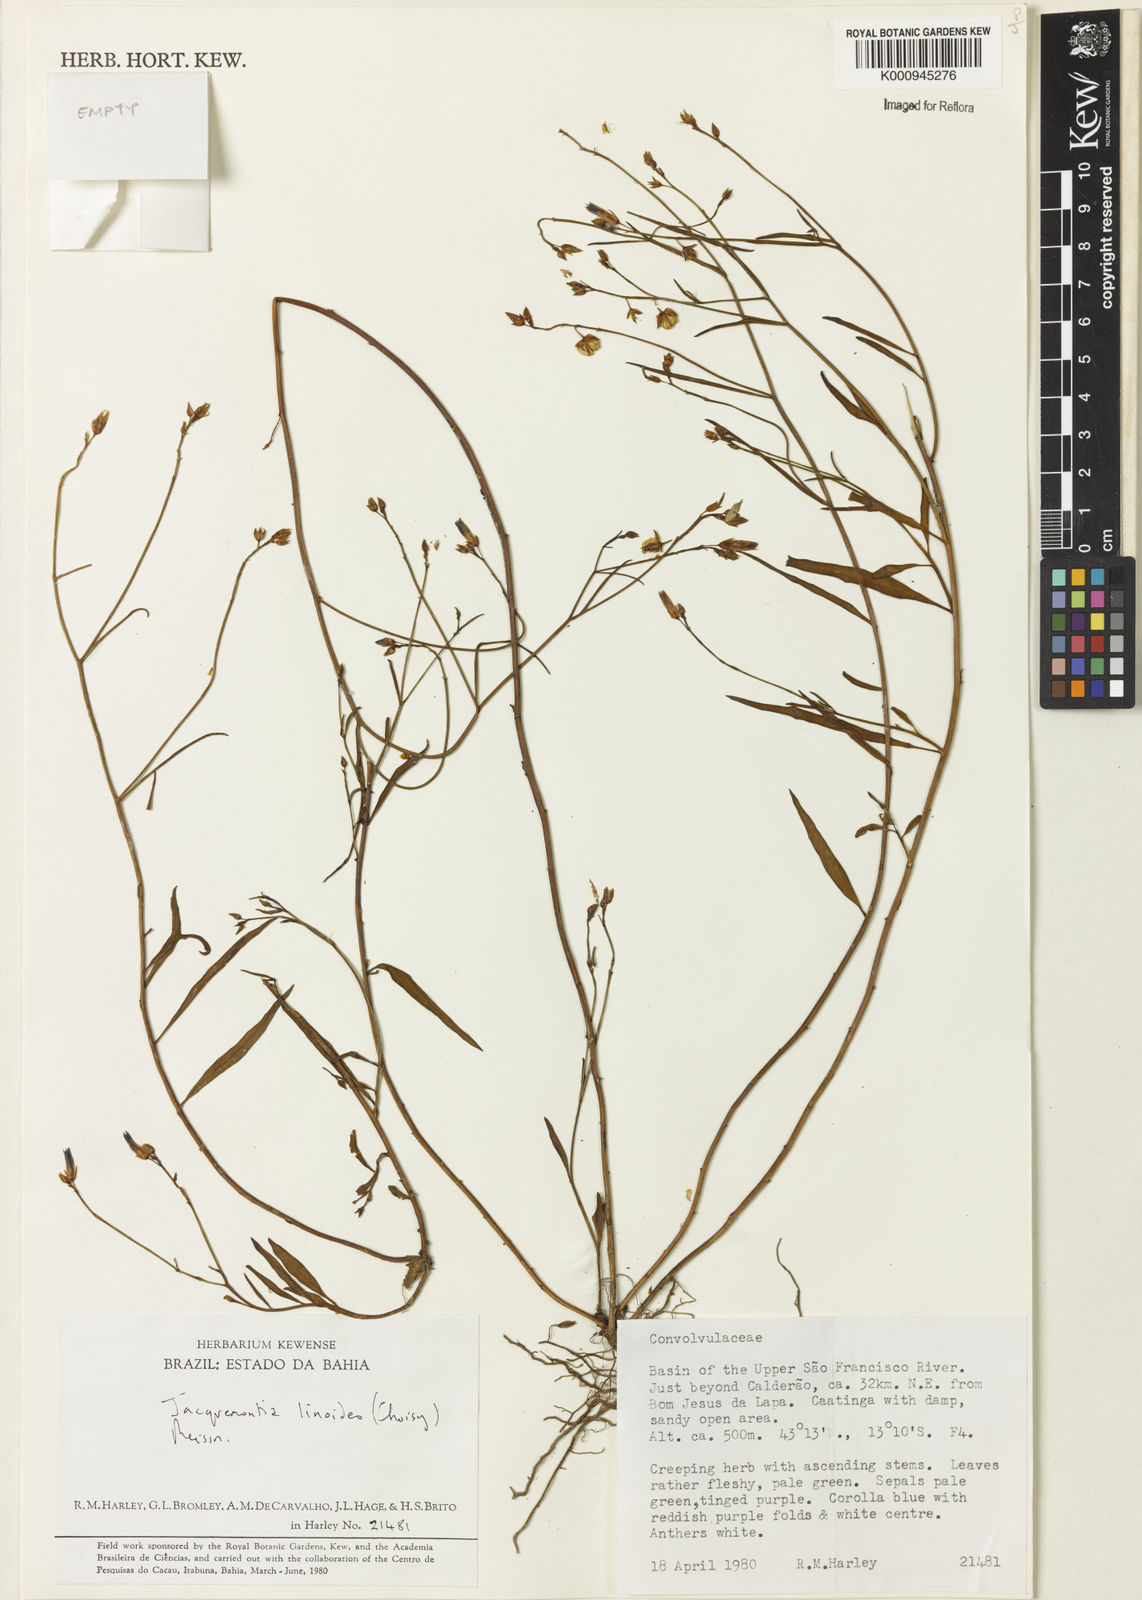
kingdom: Plantae
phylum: Tracheophyta
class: Magnoliopsida
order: Solanales
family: Convolvulaceae
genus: Jacquemontia
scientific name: Jacquemontia linoides
